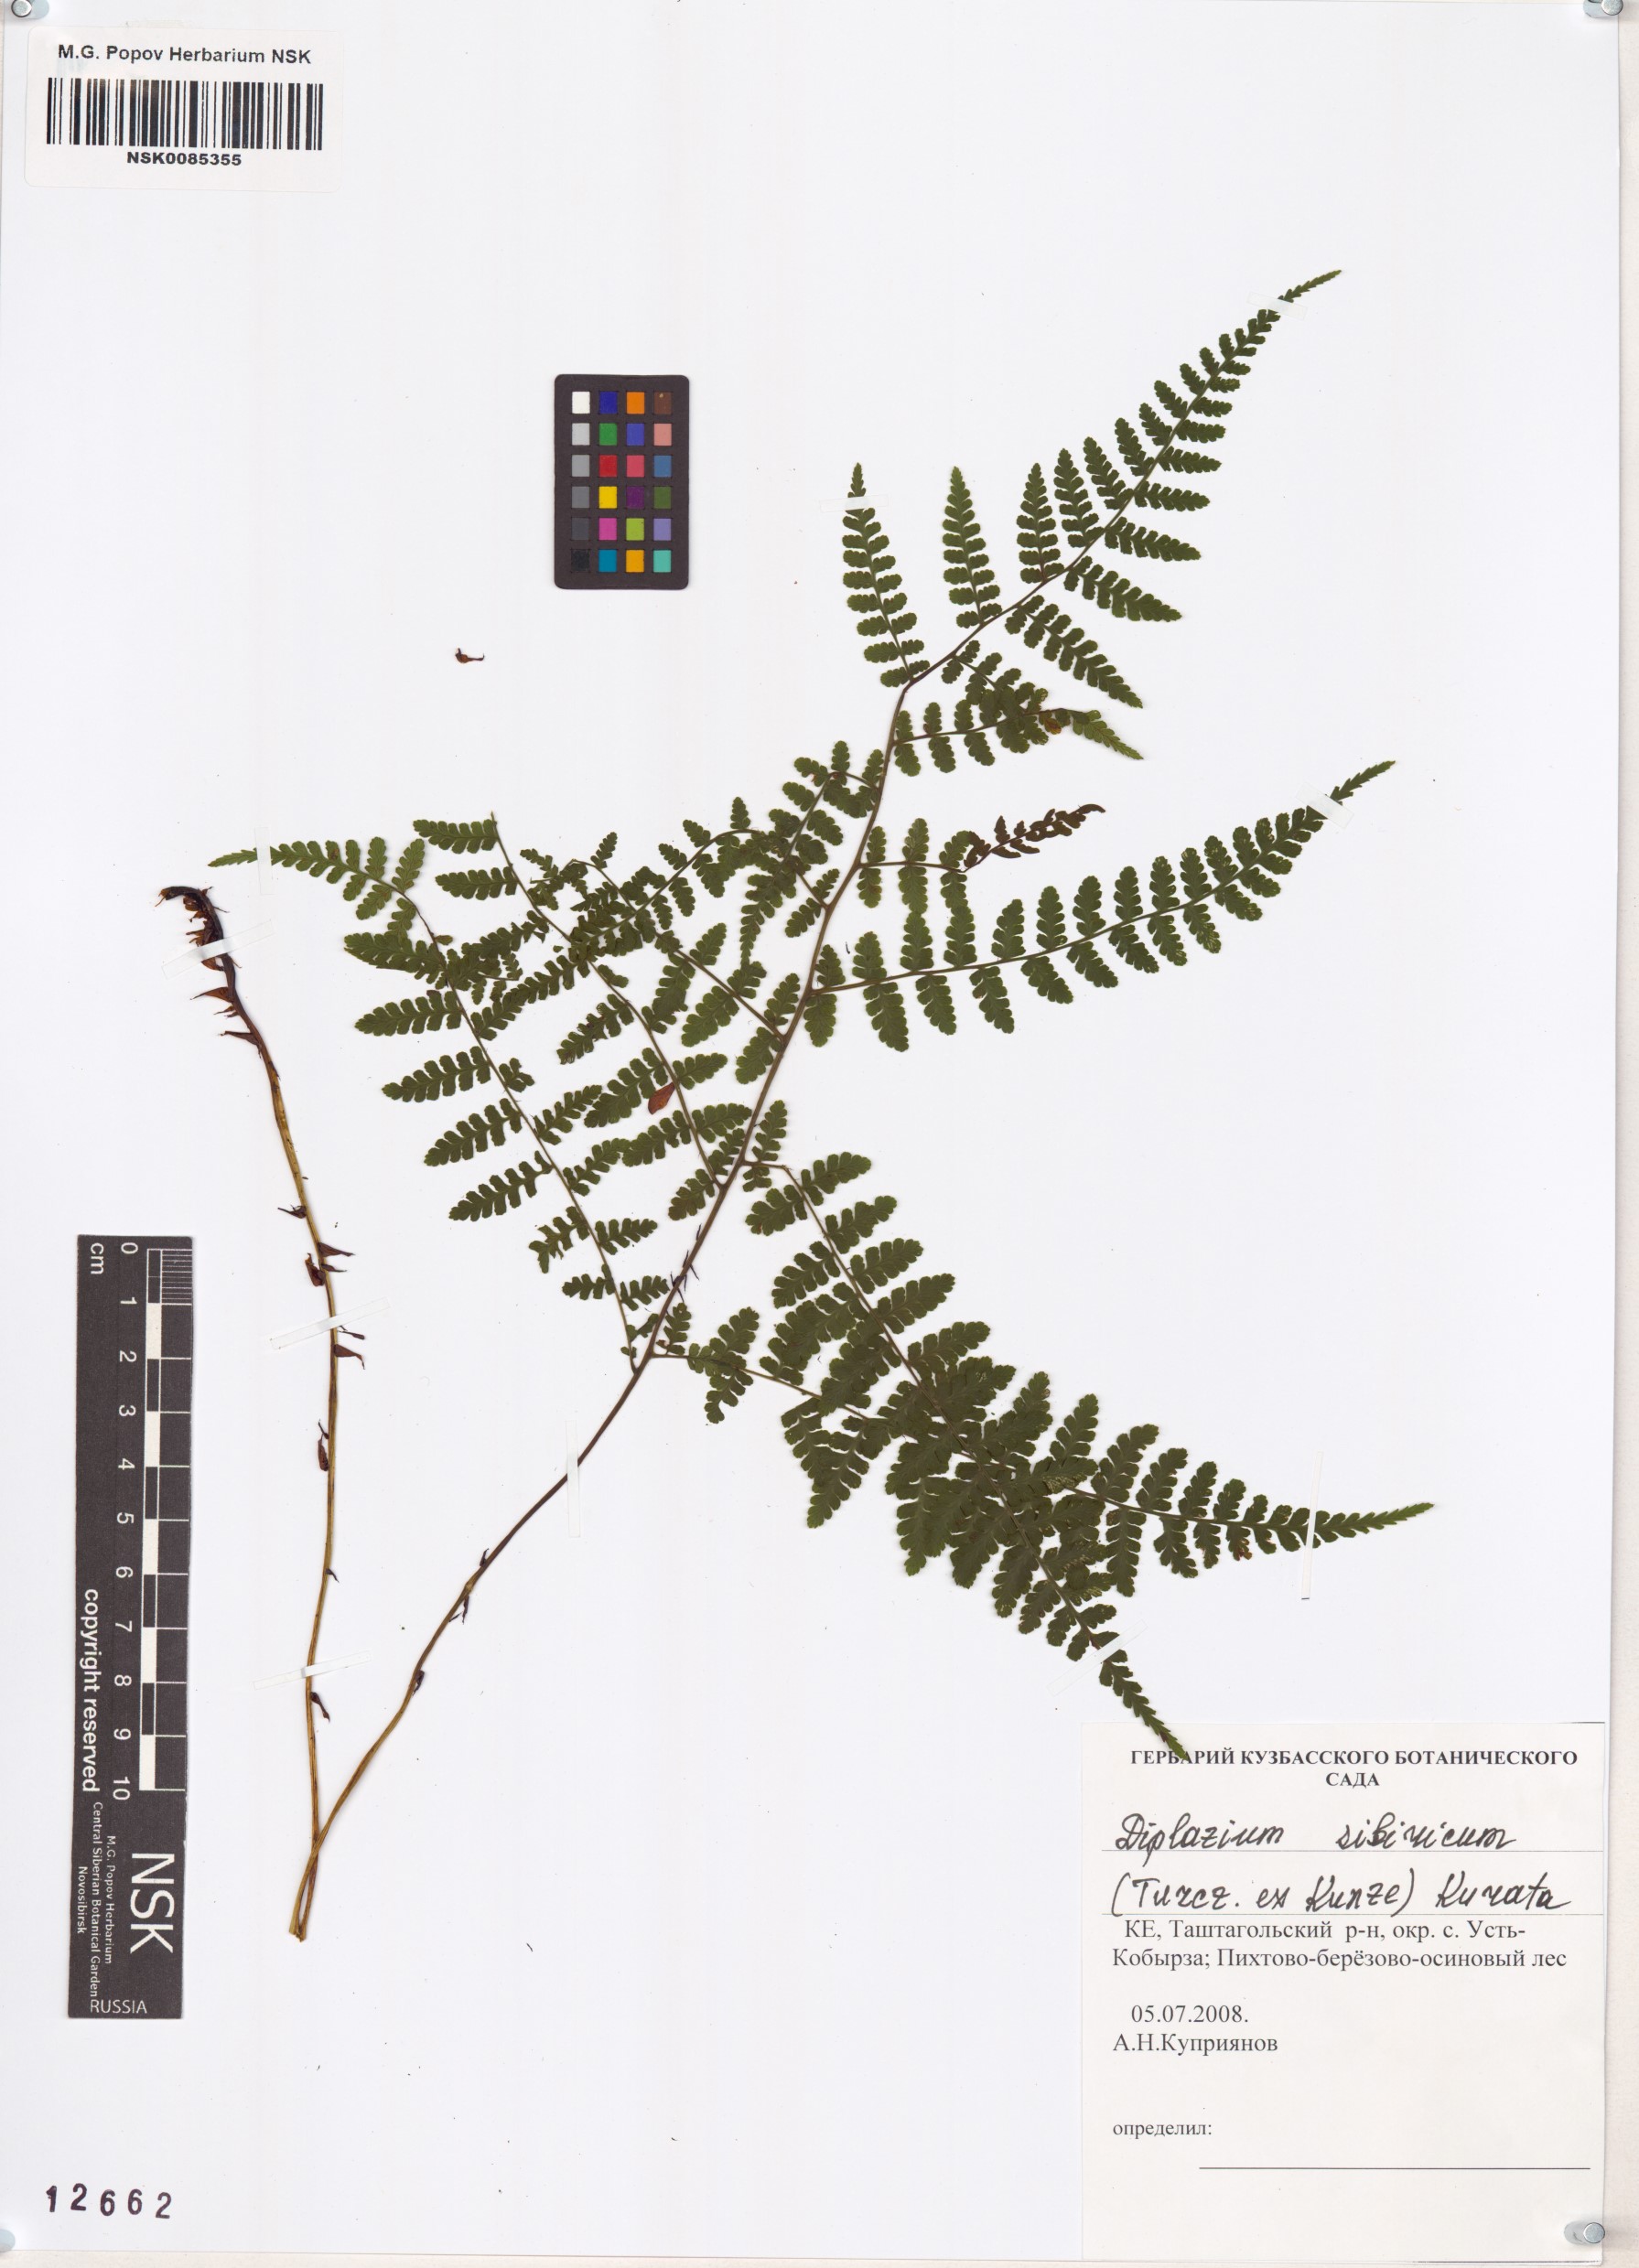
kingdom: Plantae
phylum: Tracheophyta
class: Polypodiopsida
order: Polypodiales
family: Athyriaceae
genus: Diplazium
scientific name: Diplazium sibiricum
